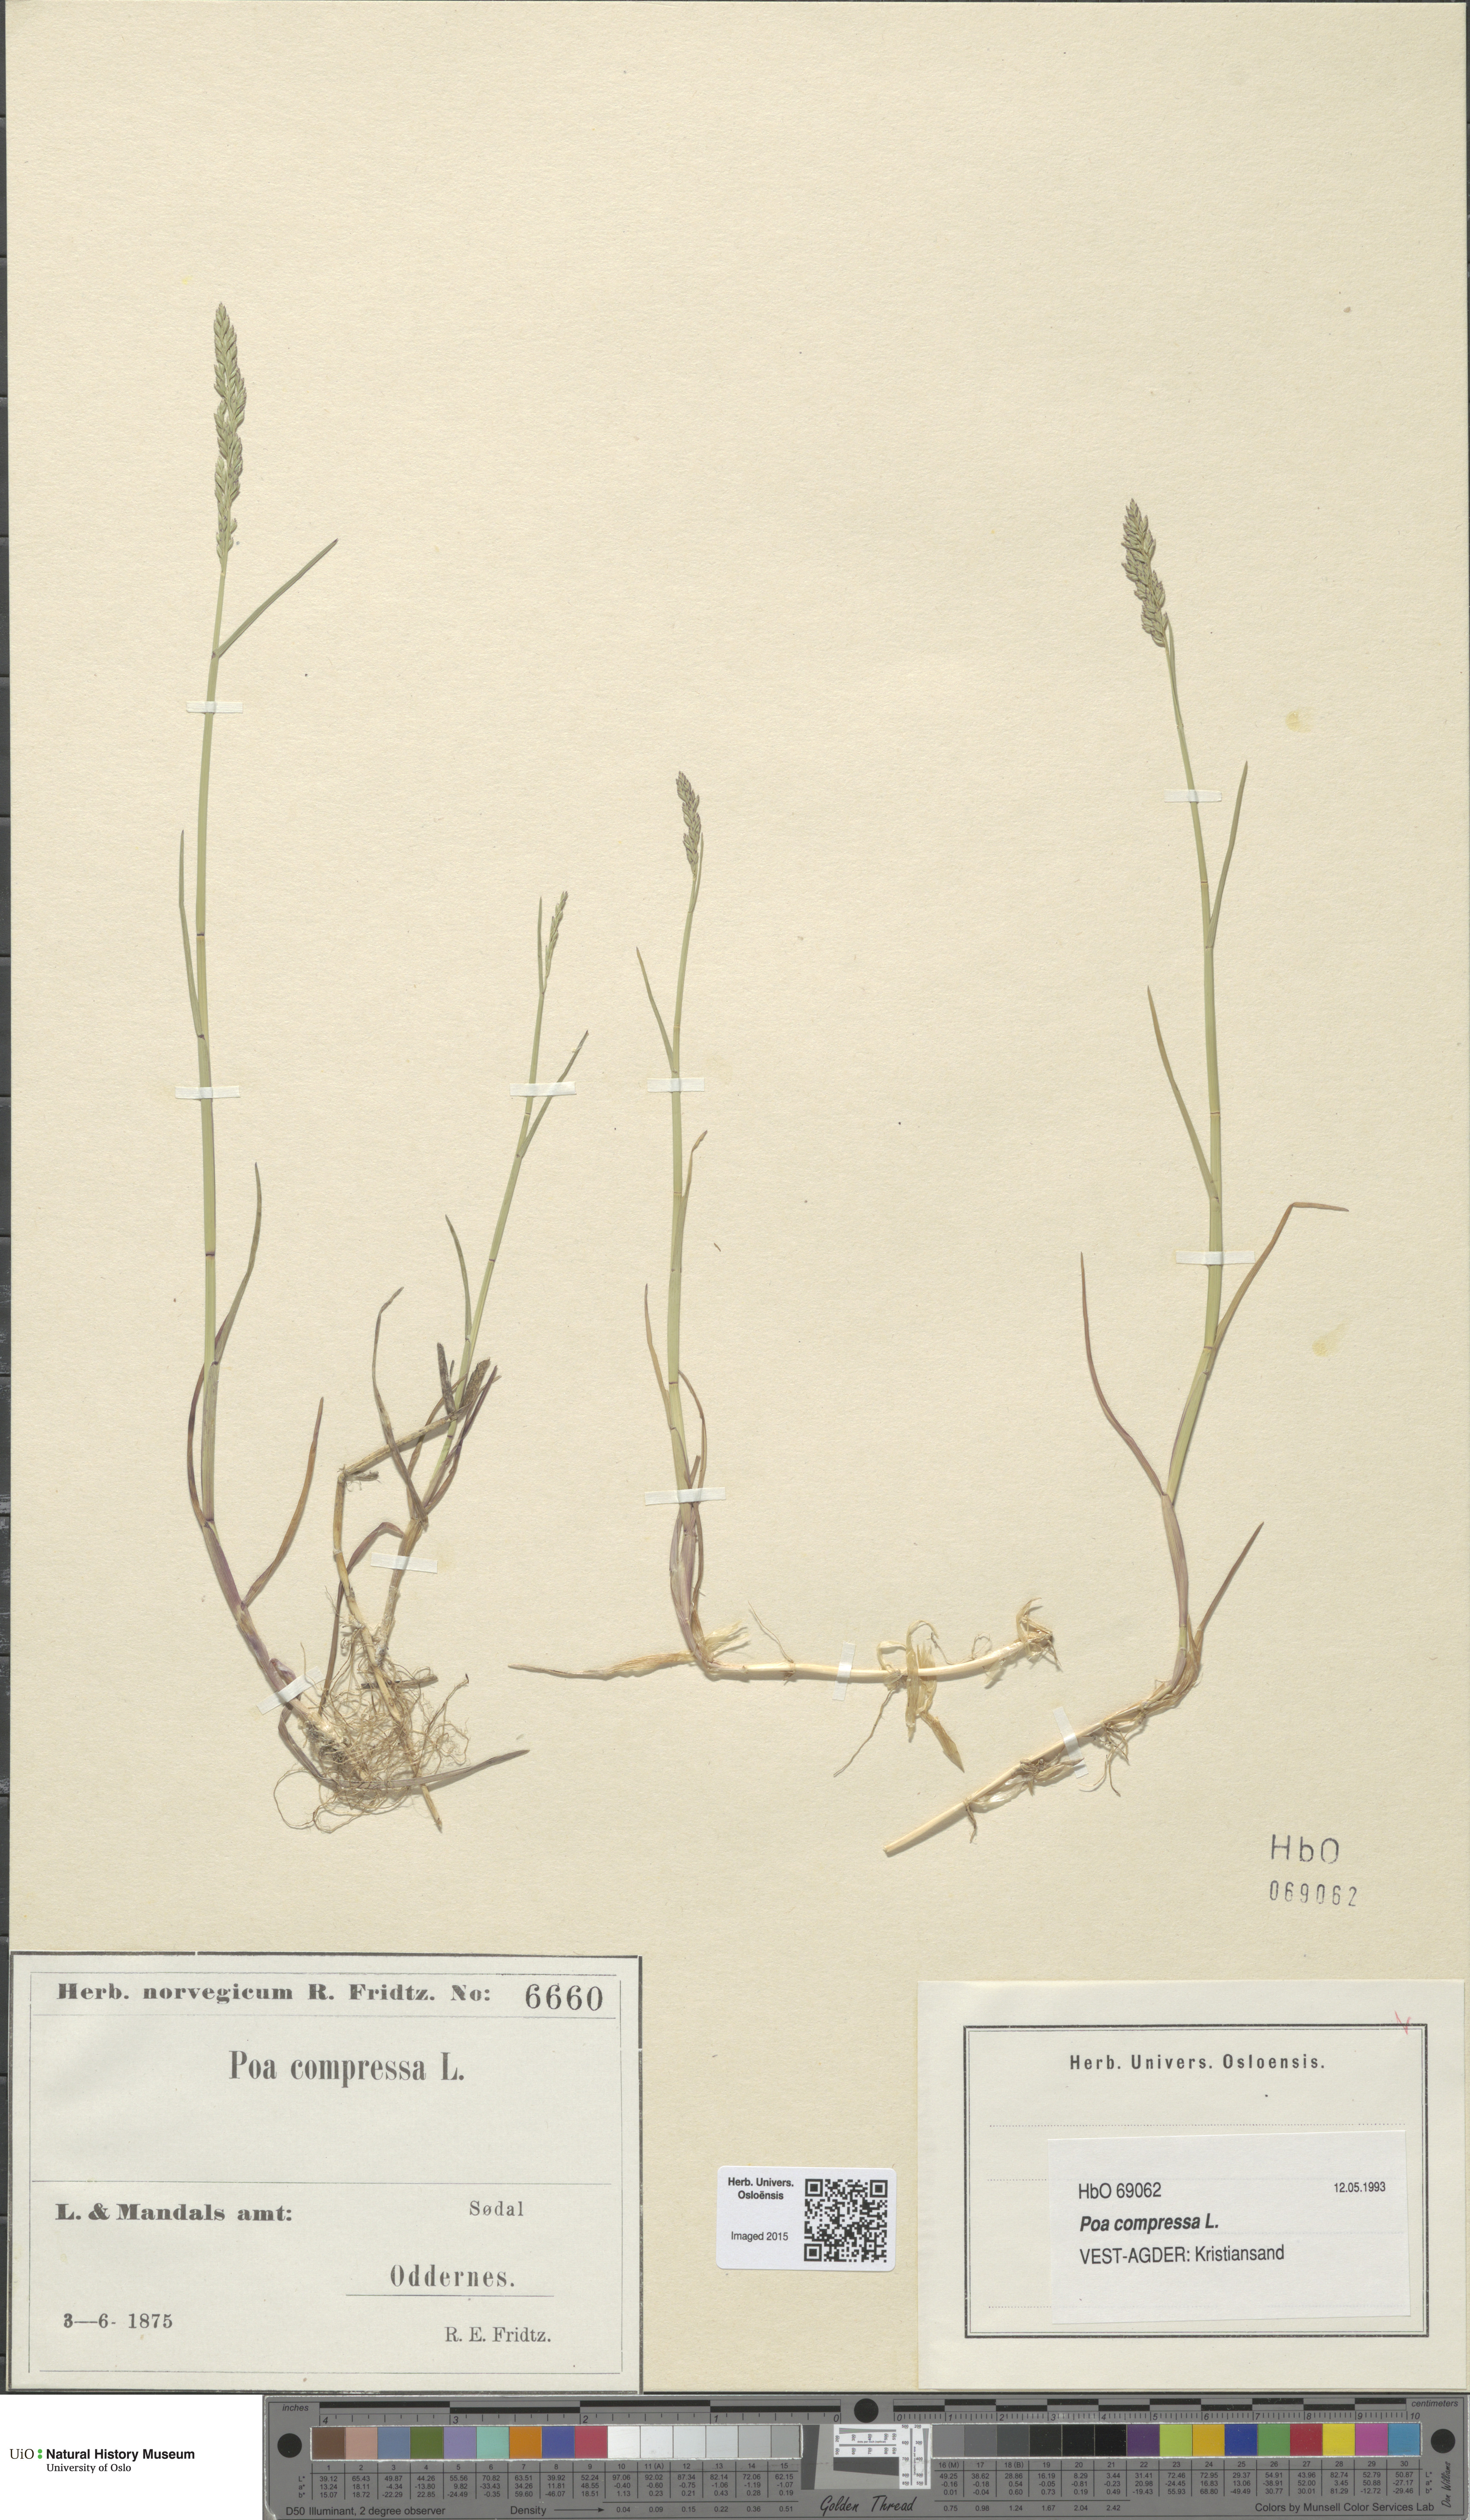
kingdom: Plantae
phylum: Tracheophyta
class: Liliopsida
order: Poales
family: Poaceae
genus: Poa
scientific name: Poa compressa
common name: Canada bluegrass
